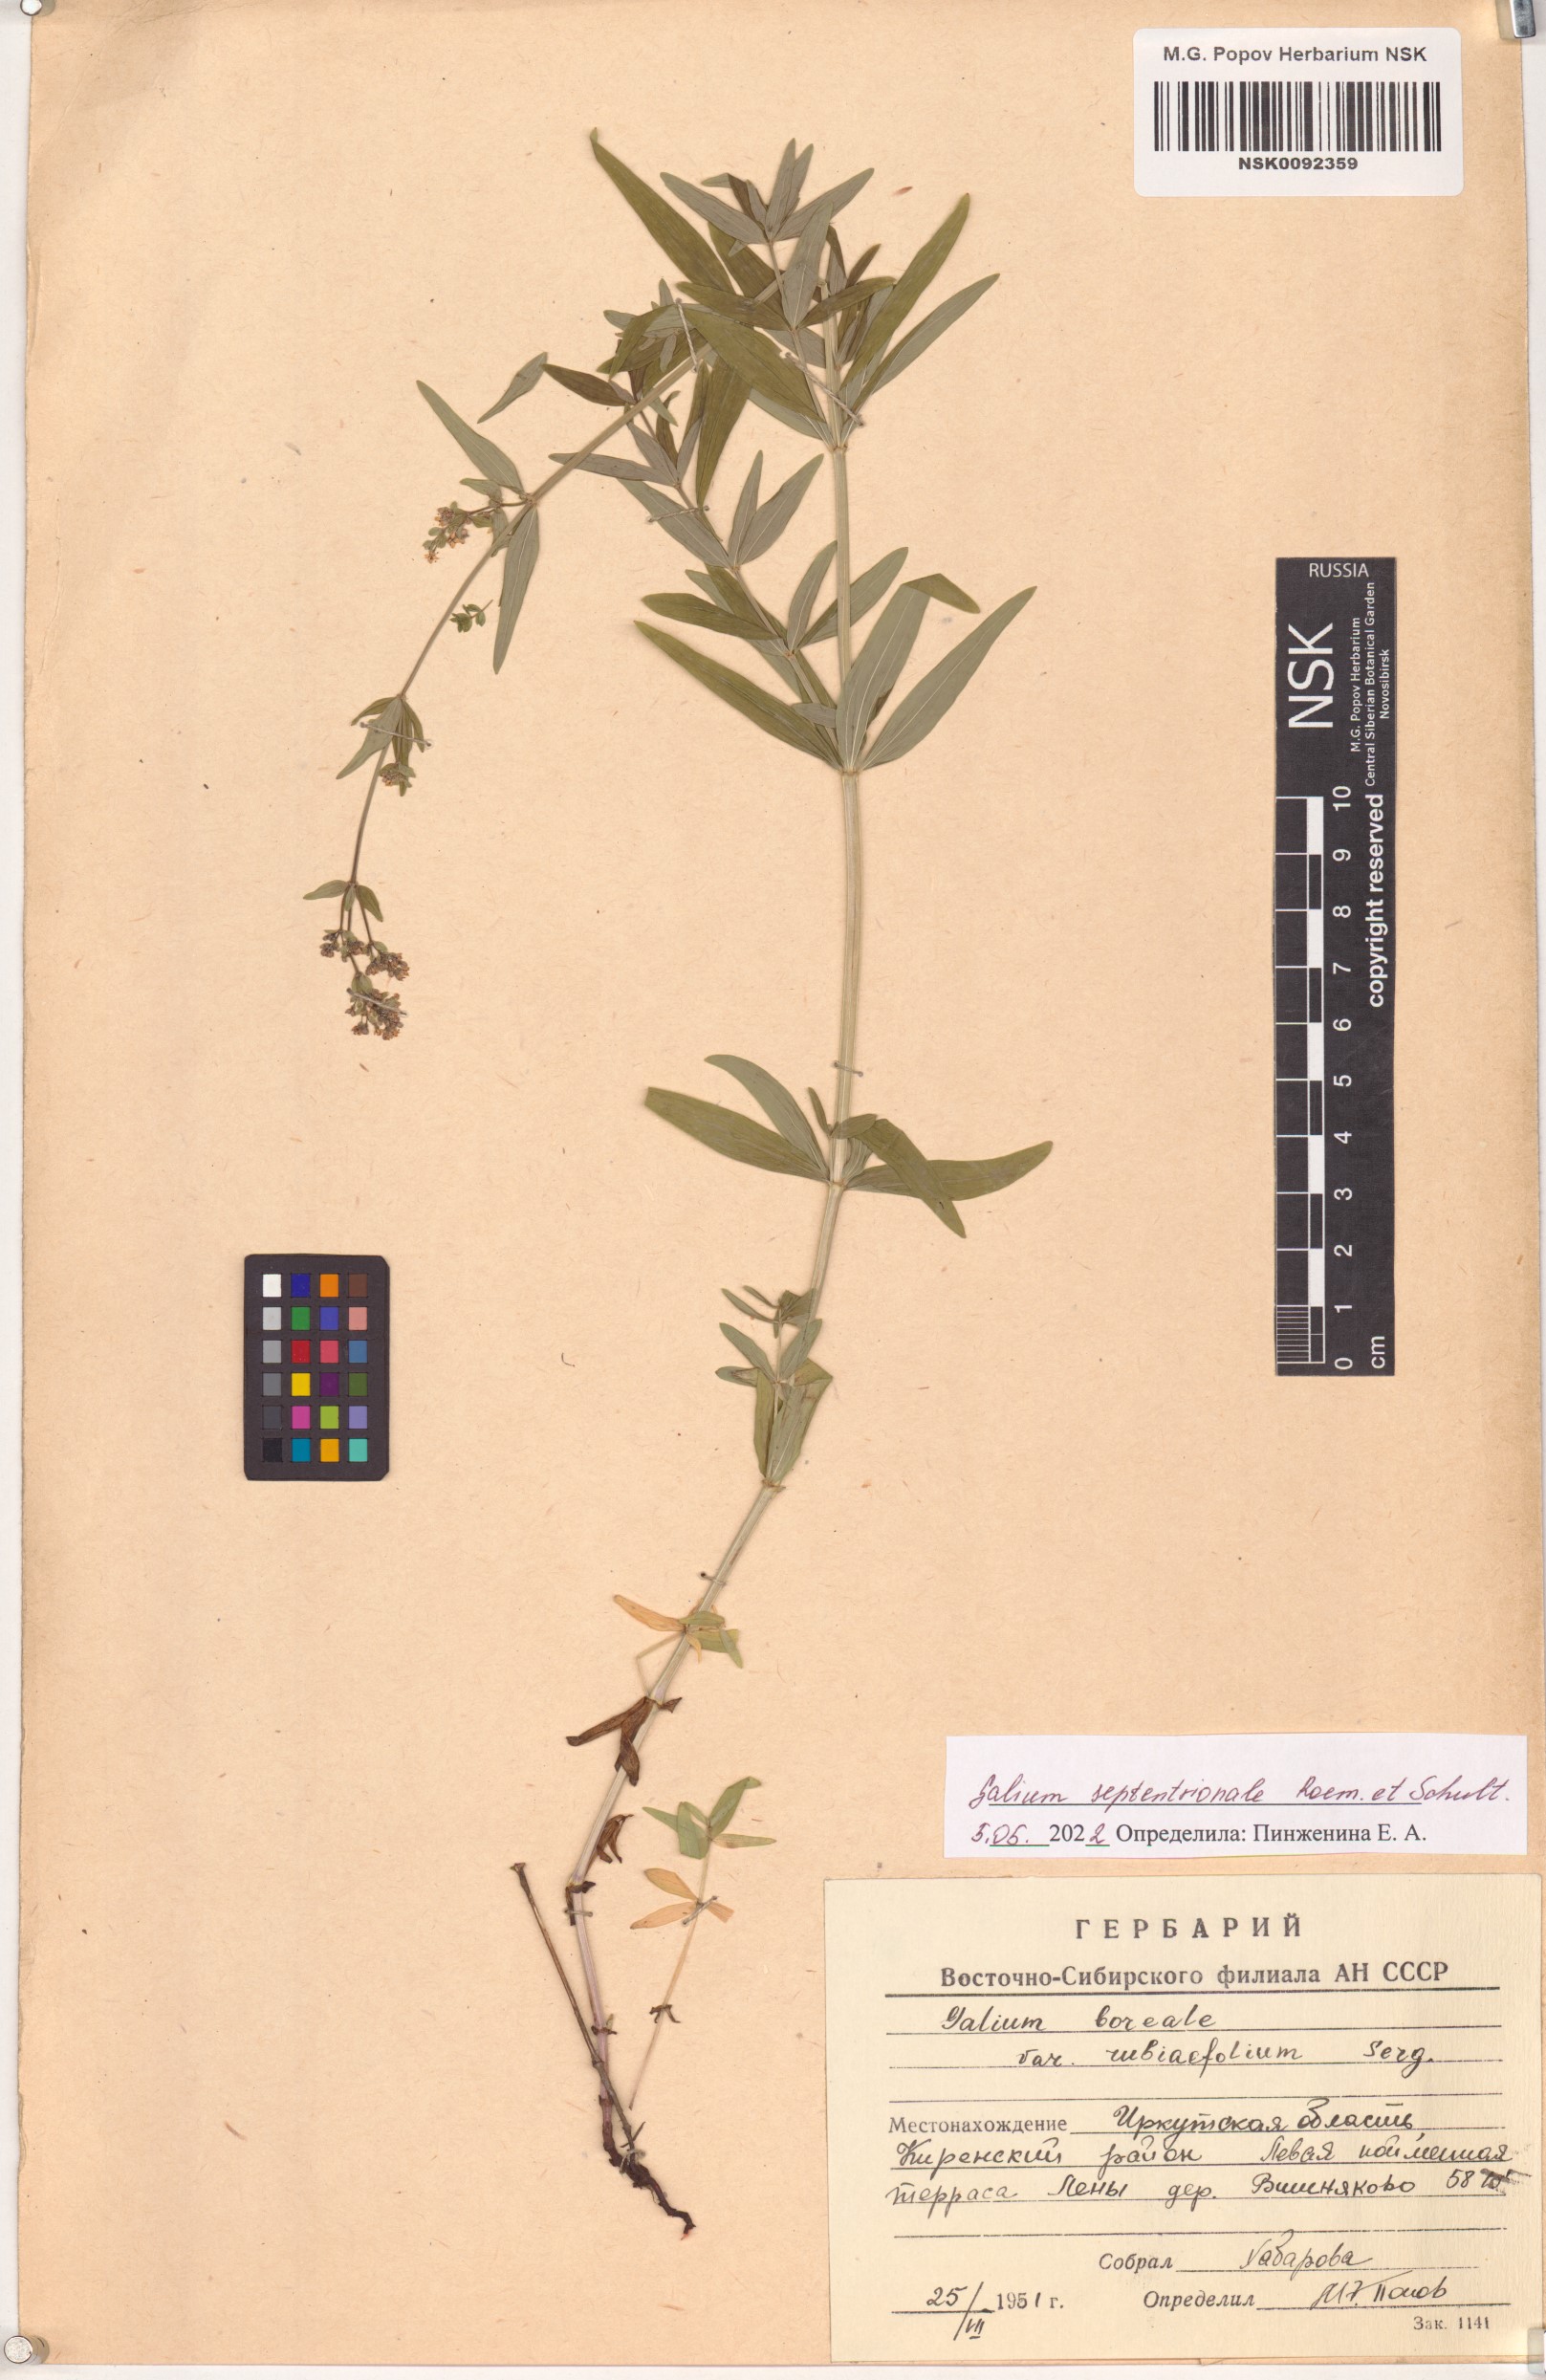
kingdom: Plantae
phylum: Tracheophyta
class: Magnoliopsida
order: Gentianales
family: Rubiaceae
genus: Galium
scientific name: Galium boreale
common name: Northern bedstraw
